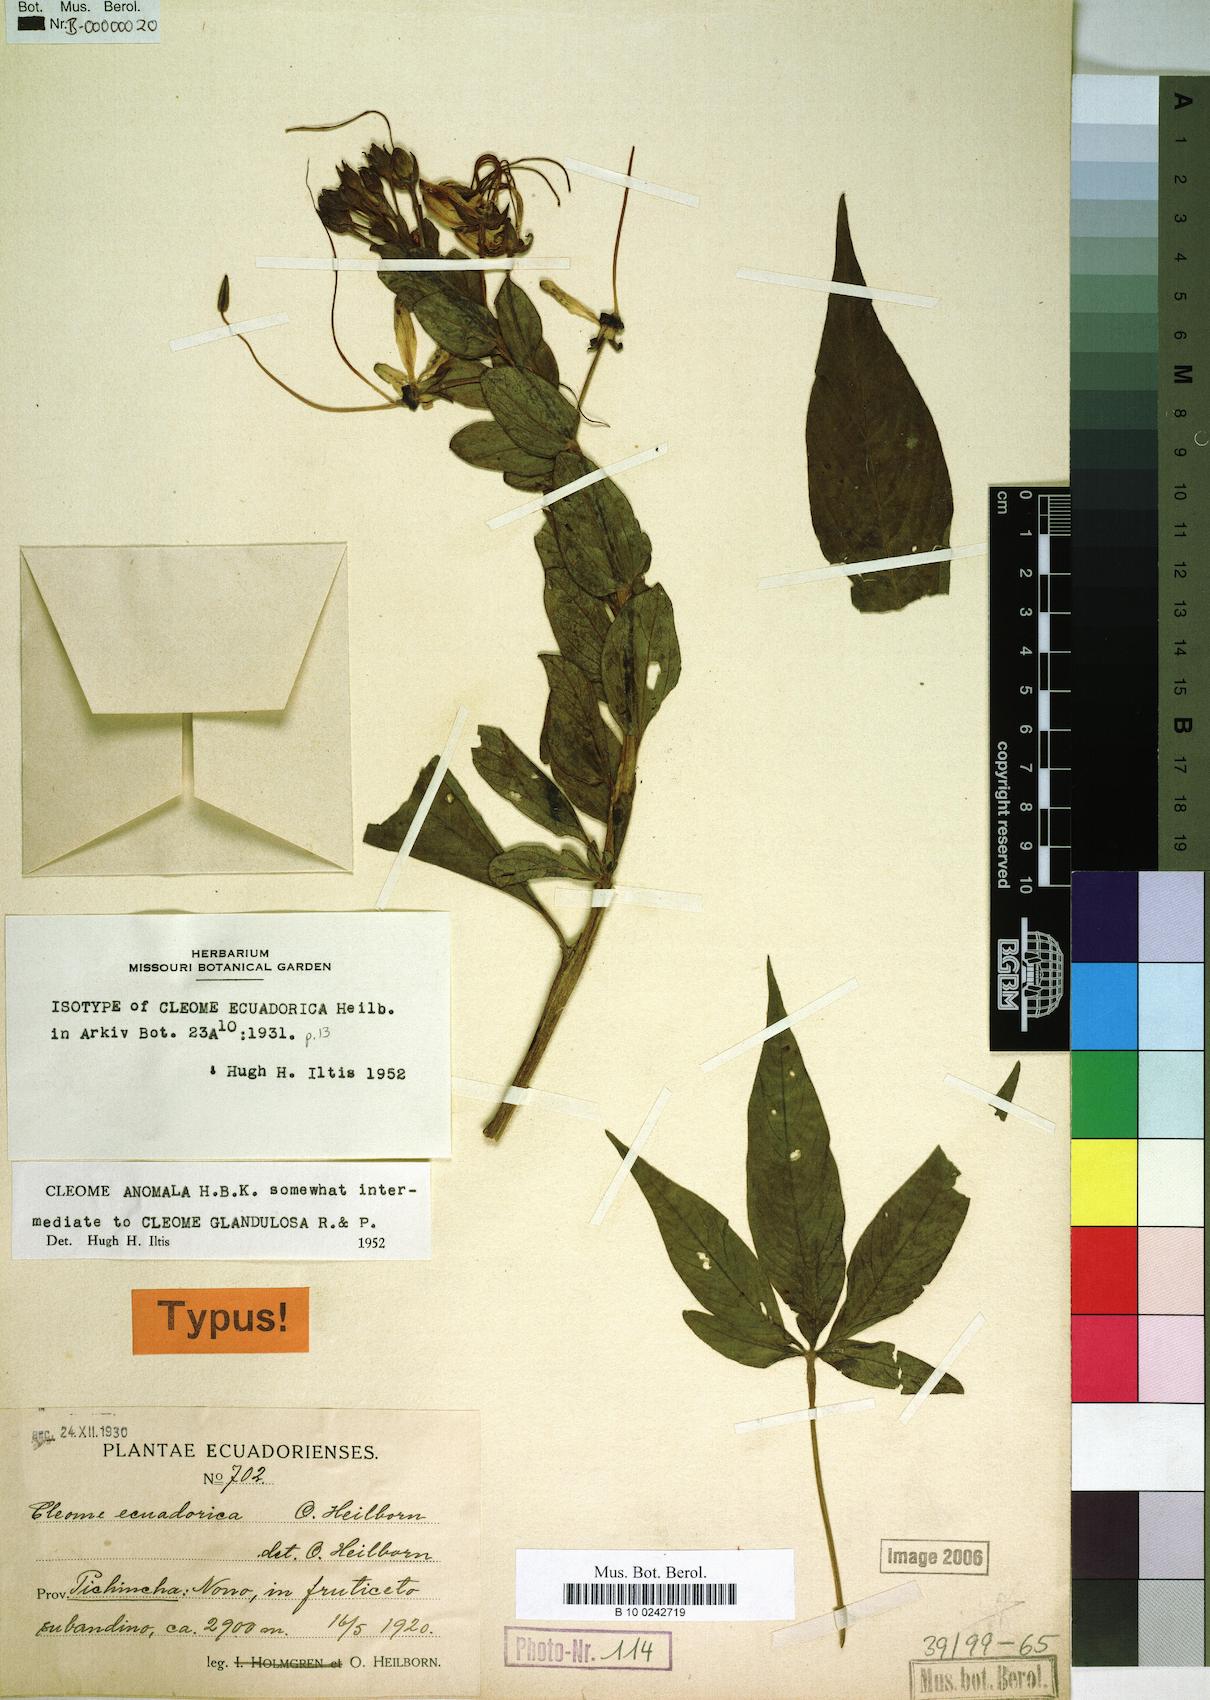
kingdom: Plantae
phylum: Tracheophyta
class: Magnoliopsida
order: Brassicales
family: Cleomaceae
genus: Andinocleome
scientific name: Andinocleome anomala
